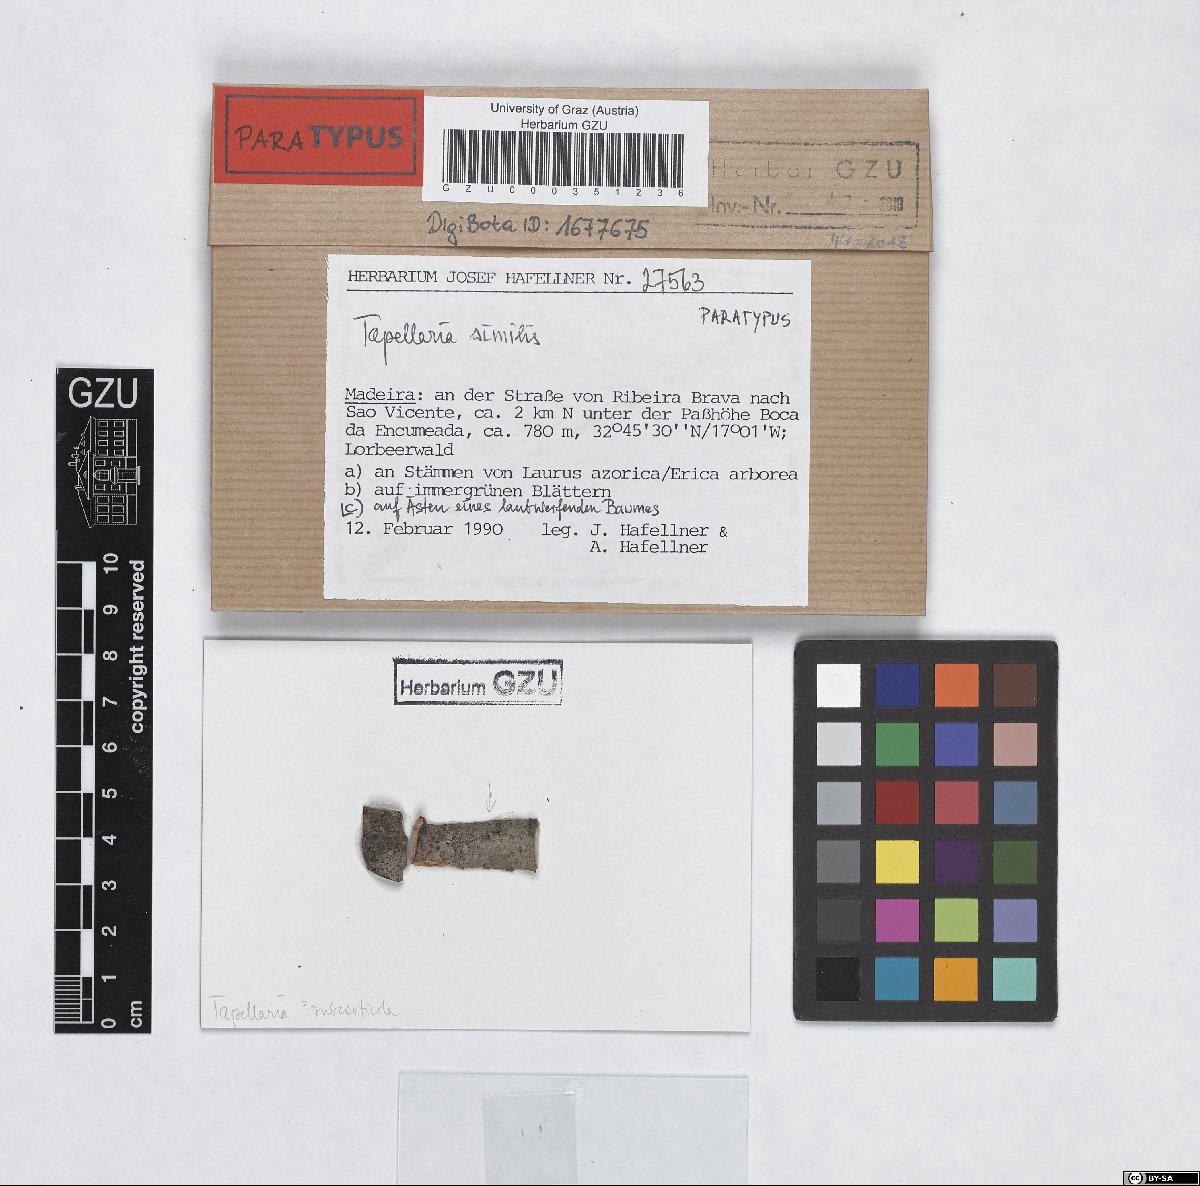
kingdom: Fungi
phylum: Ascomycota
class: Lecanoromycetes
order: Lecanorales
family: Byssolomataceae
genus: Tapellaria
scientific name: Tapellaria similis
